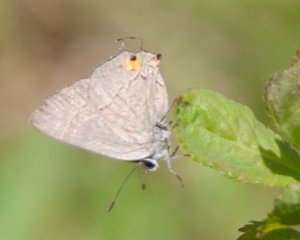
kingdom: Animalia
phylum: Arthropoda
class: Insecta
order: Lepidoptera
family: Lycaenidae
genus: Strymon
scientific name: Strymon melinus
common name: Gray Hairstreak
